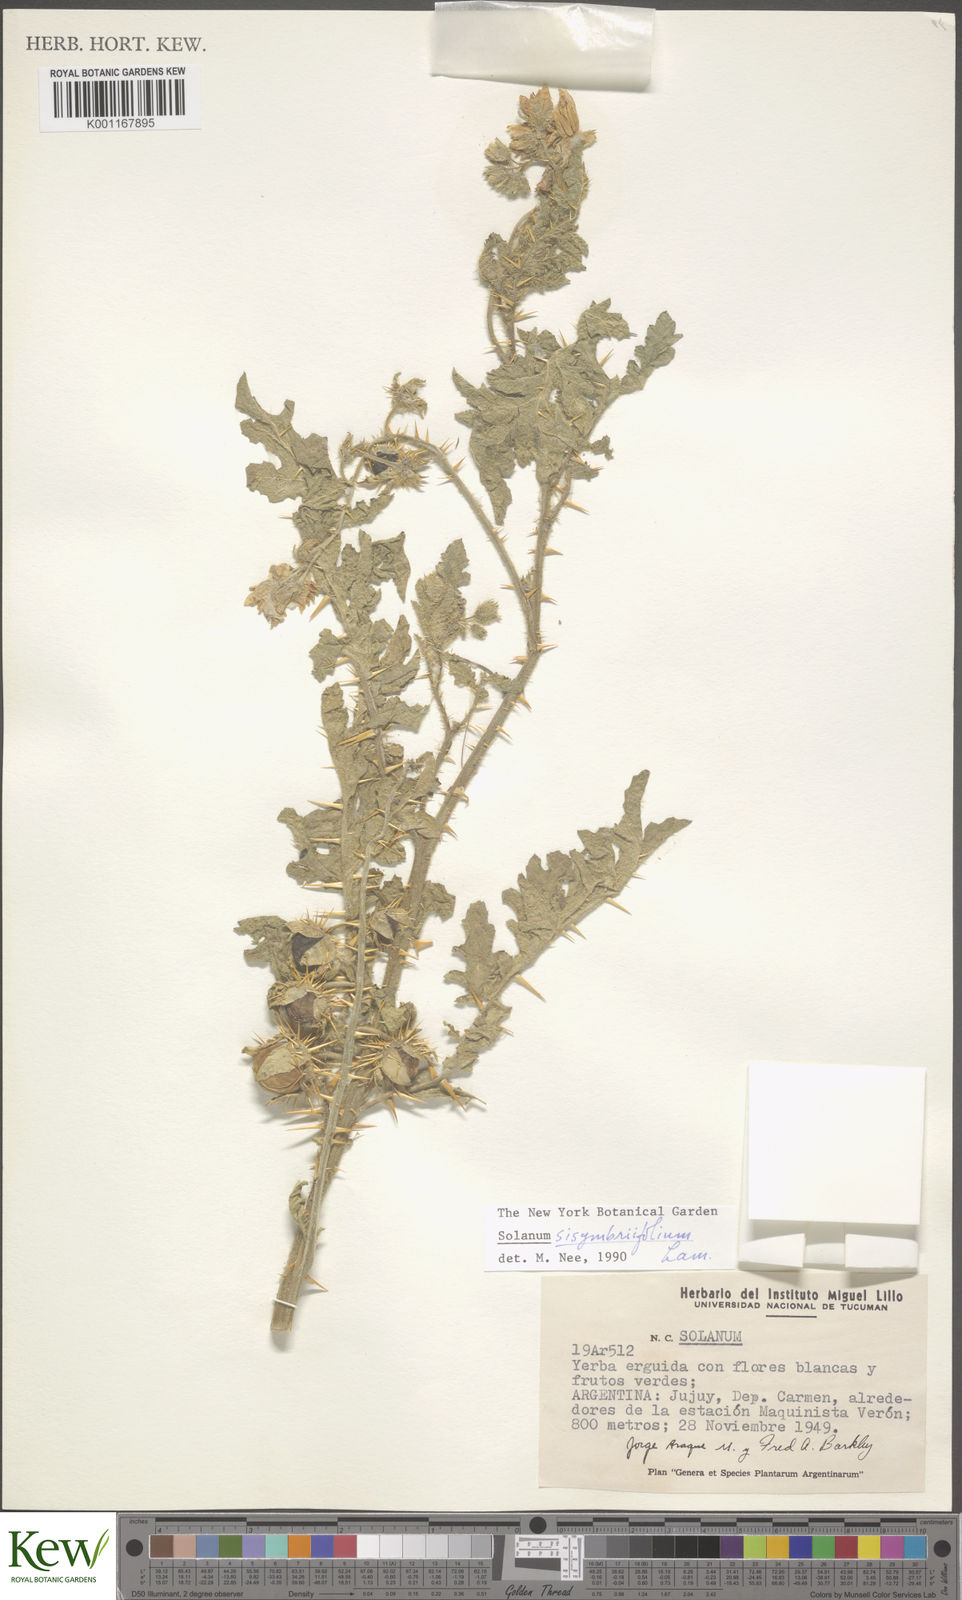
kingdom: Plantae
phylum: Tracheophyta
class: Magnoliopsida
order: Solanales
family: Solanaceae
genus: Solanum
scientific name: Solanum sisymbriifolium
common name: Red buffalo-bur
